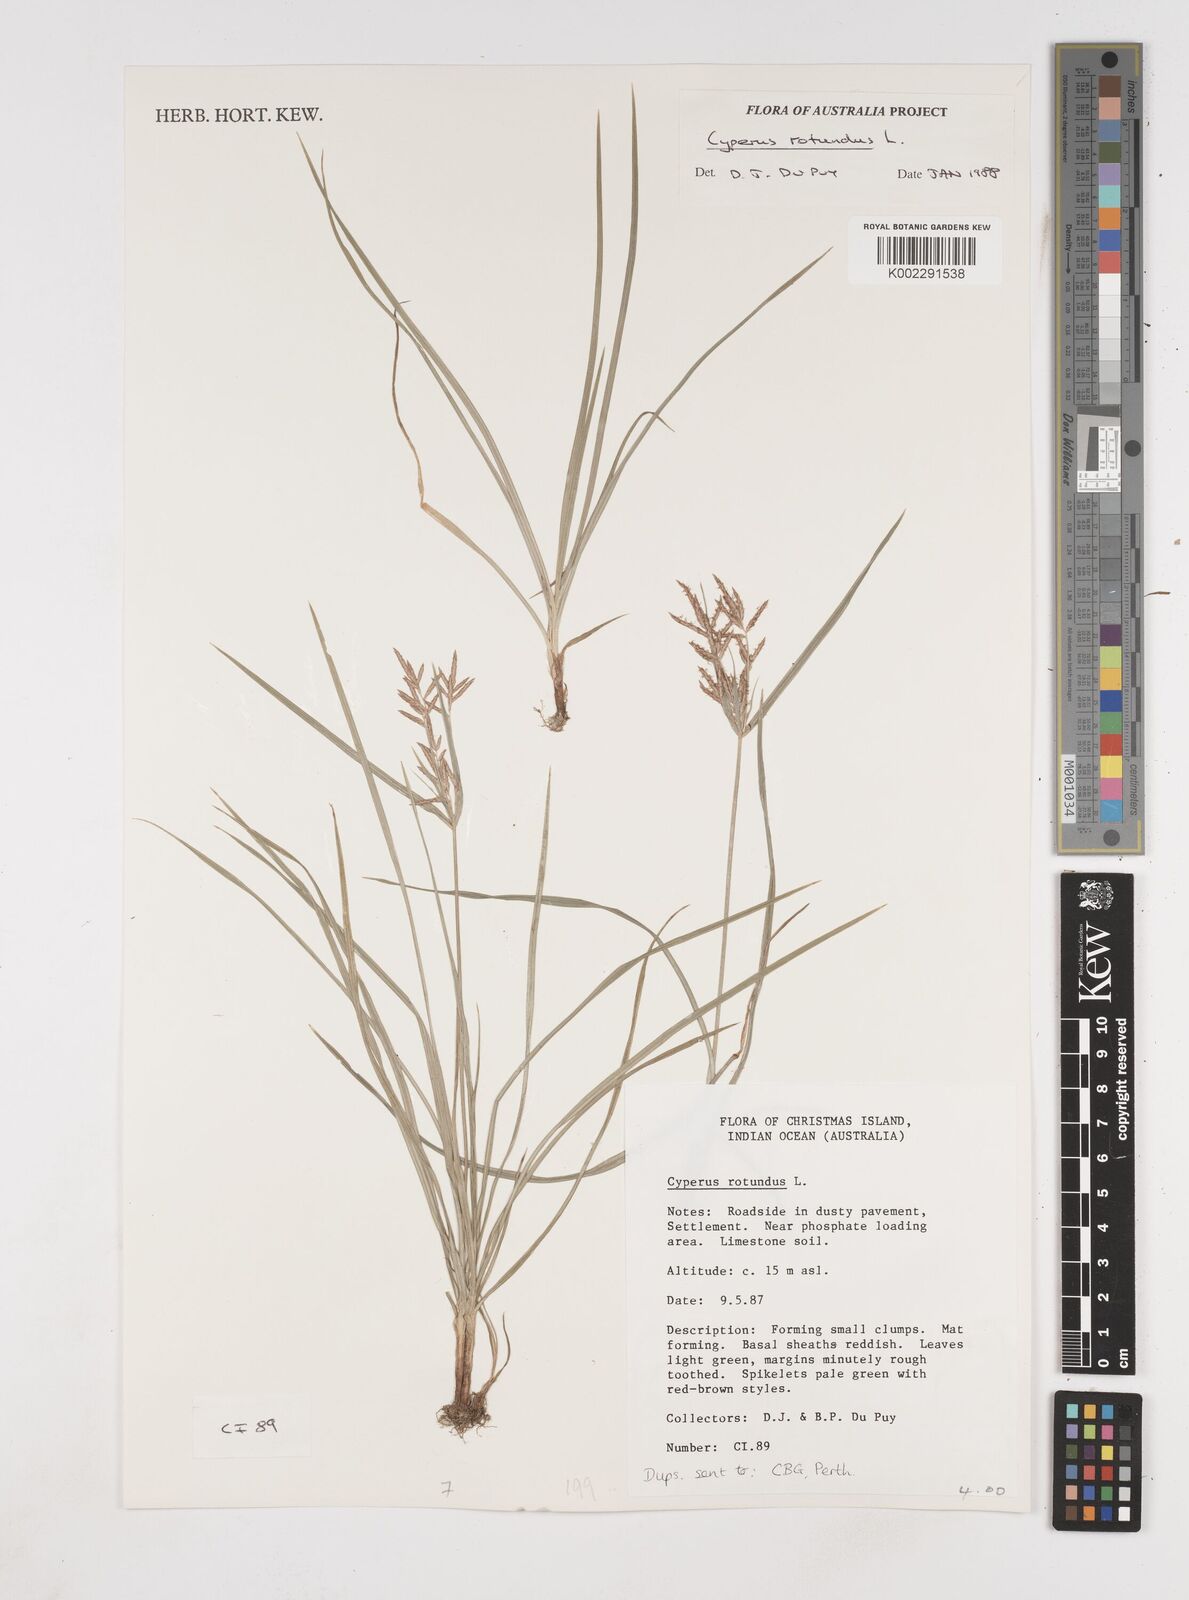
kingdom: Plantae
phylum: Tracheophyta
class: Liliopsida
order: Poales
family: Cyperaceae
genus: Cyperus
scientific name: Cyperus rotundus
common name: Nutgrass
